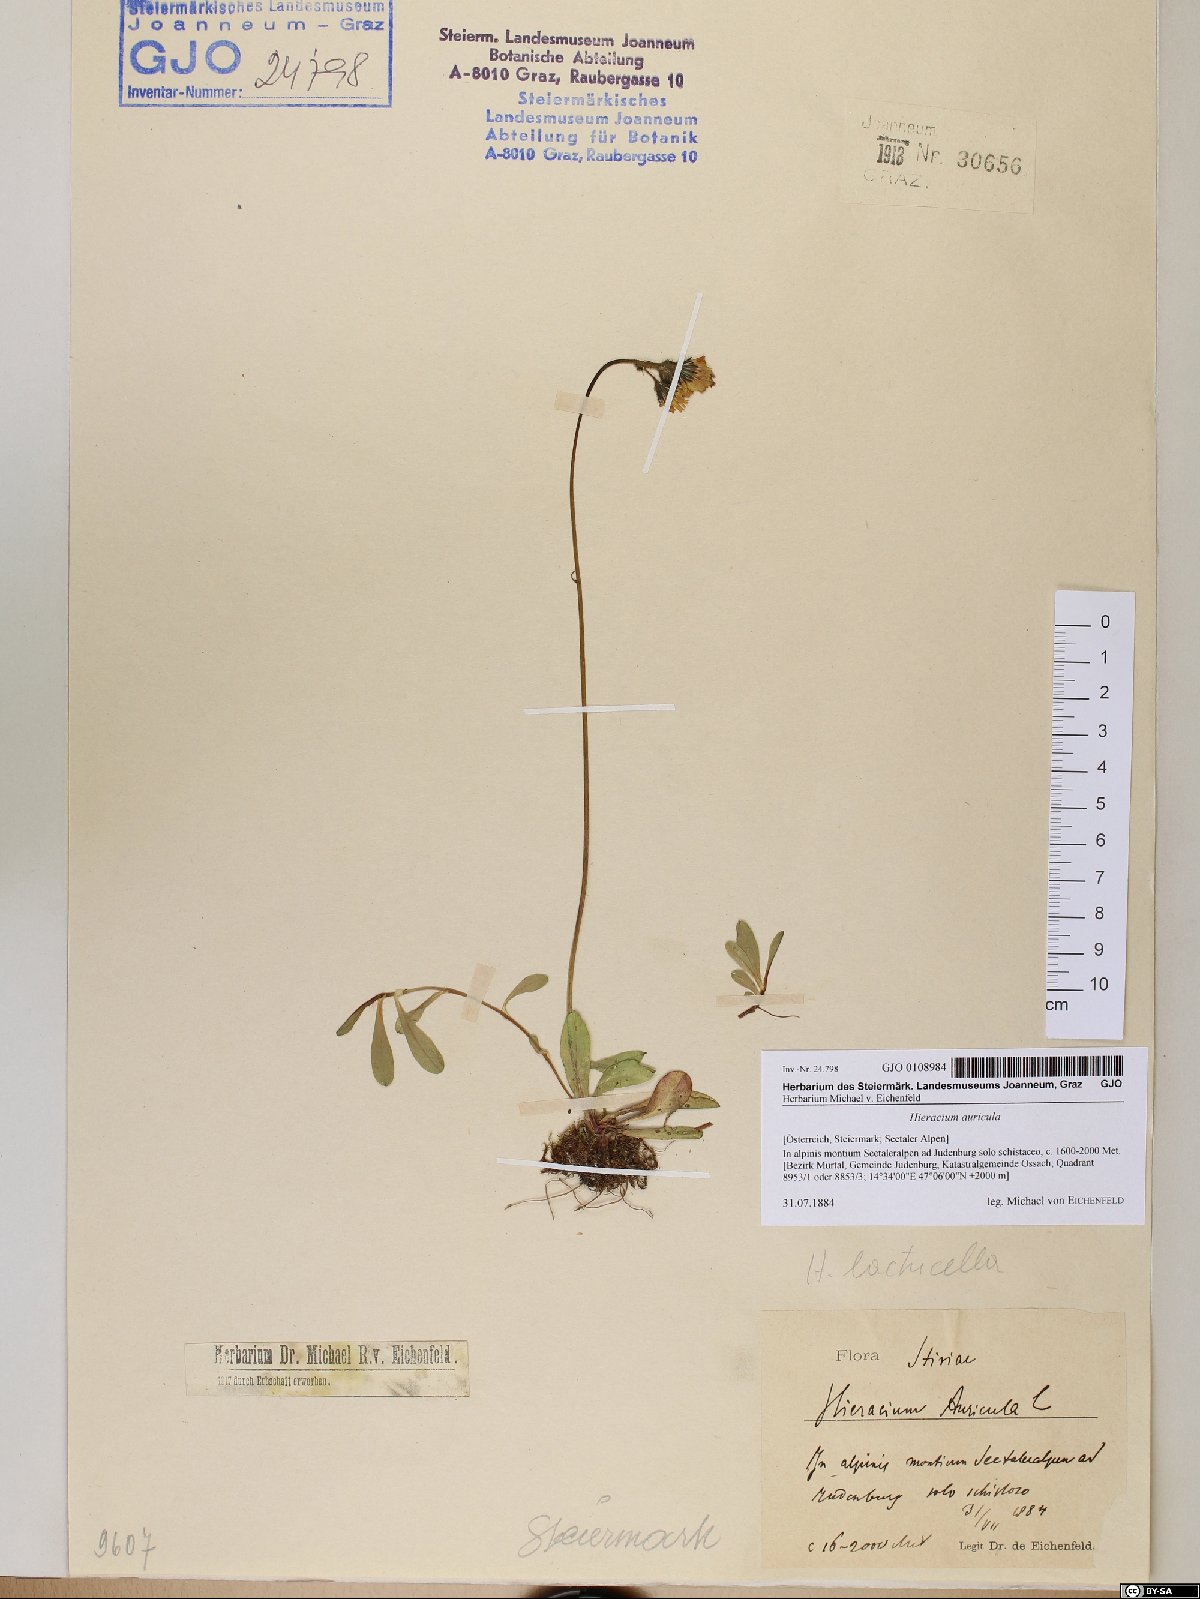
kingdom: Plantae
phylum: Tracheophyta
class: Magnoliopsida
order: Asterales
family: Asteraceae
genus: Hieracium
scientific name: Hieracium auricula
